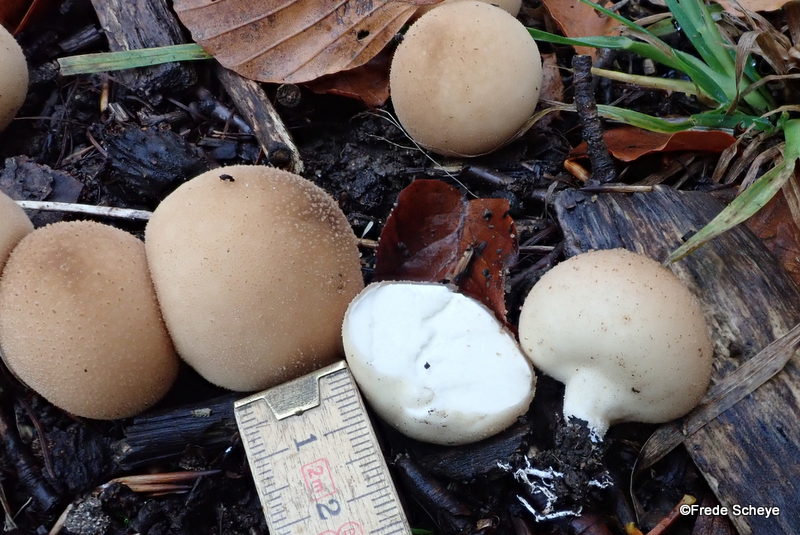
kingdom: Fungi
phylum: Basidiomycota
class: Agaricomycetes
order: Agaricales
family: Lycoperdaceae
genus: Apioperdon
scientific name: Apioperdon pyriforme
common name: pære-støvbold
